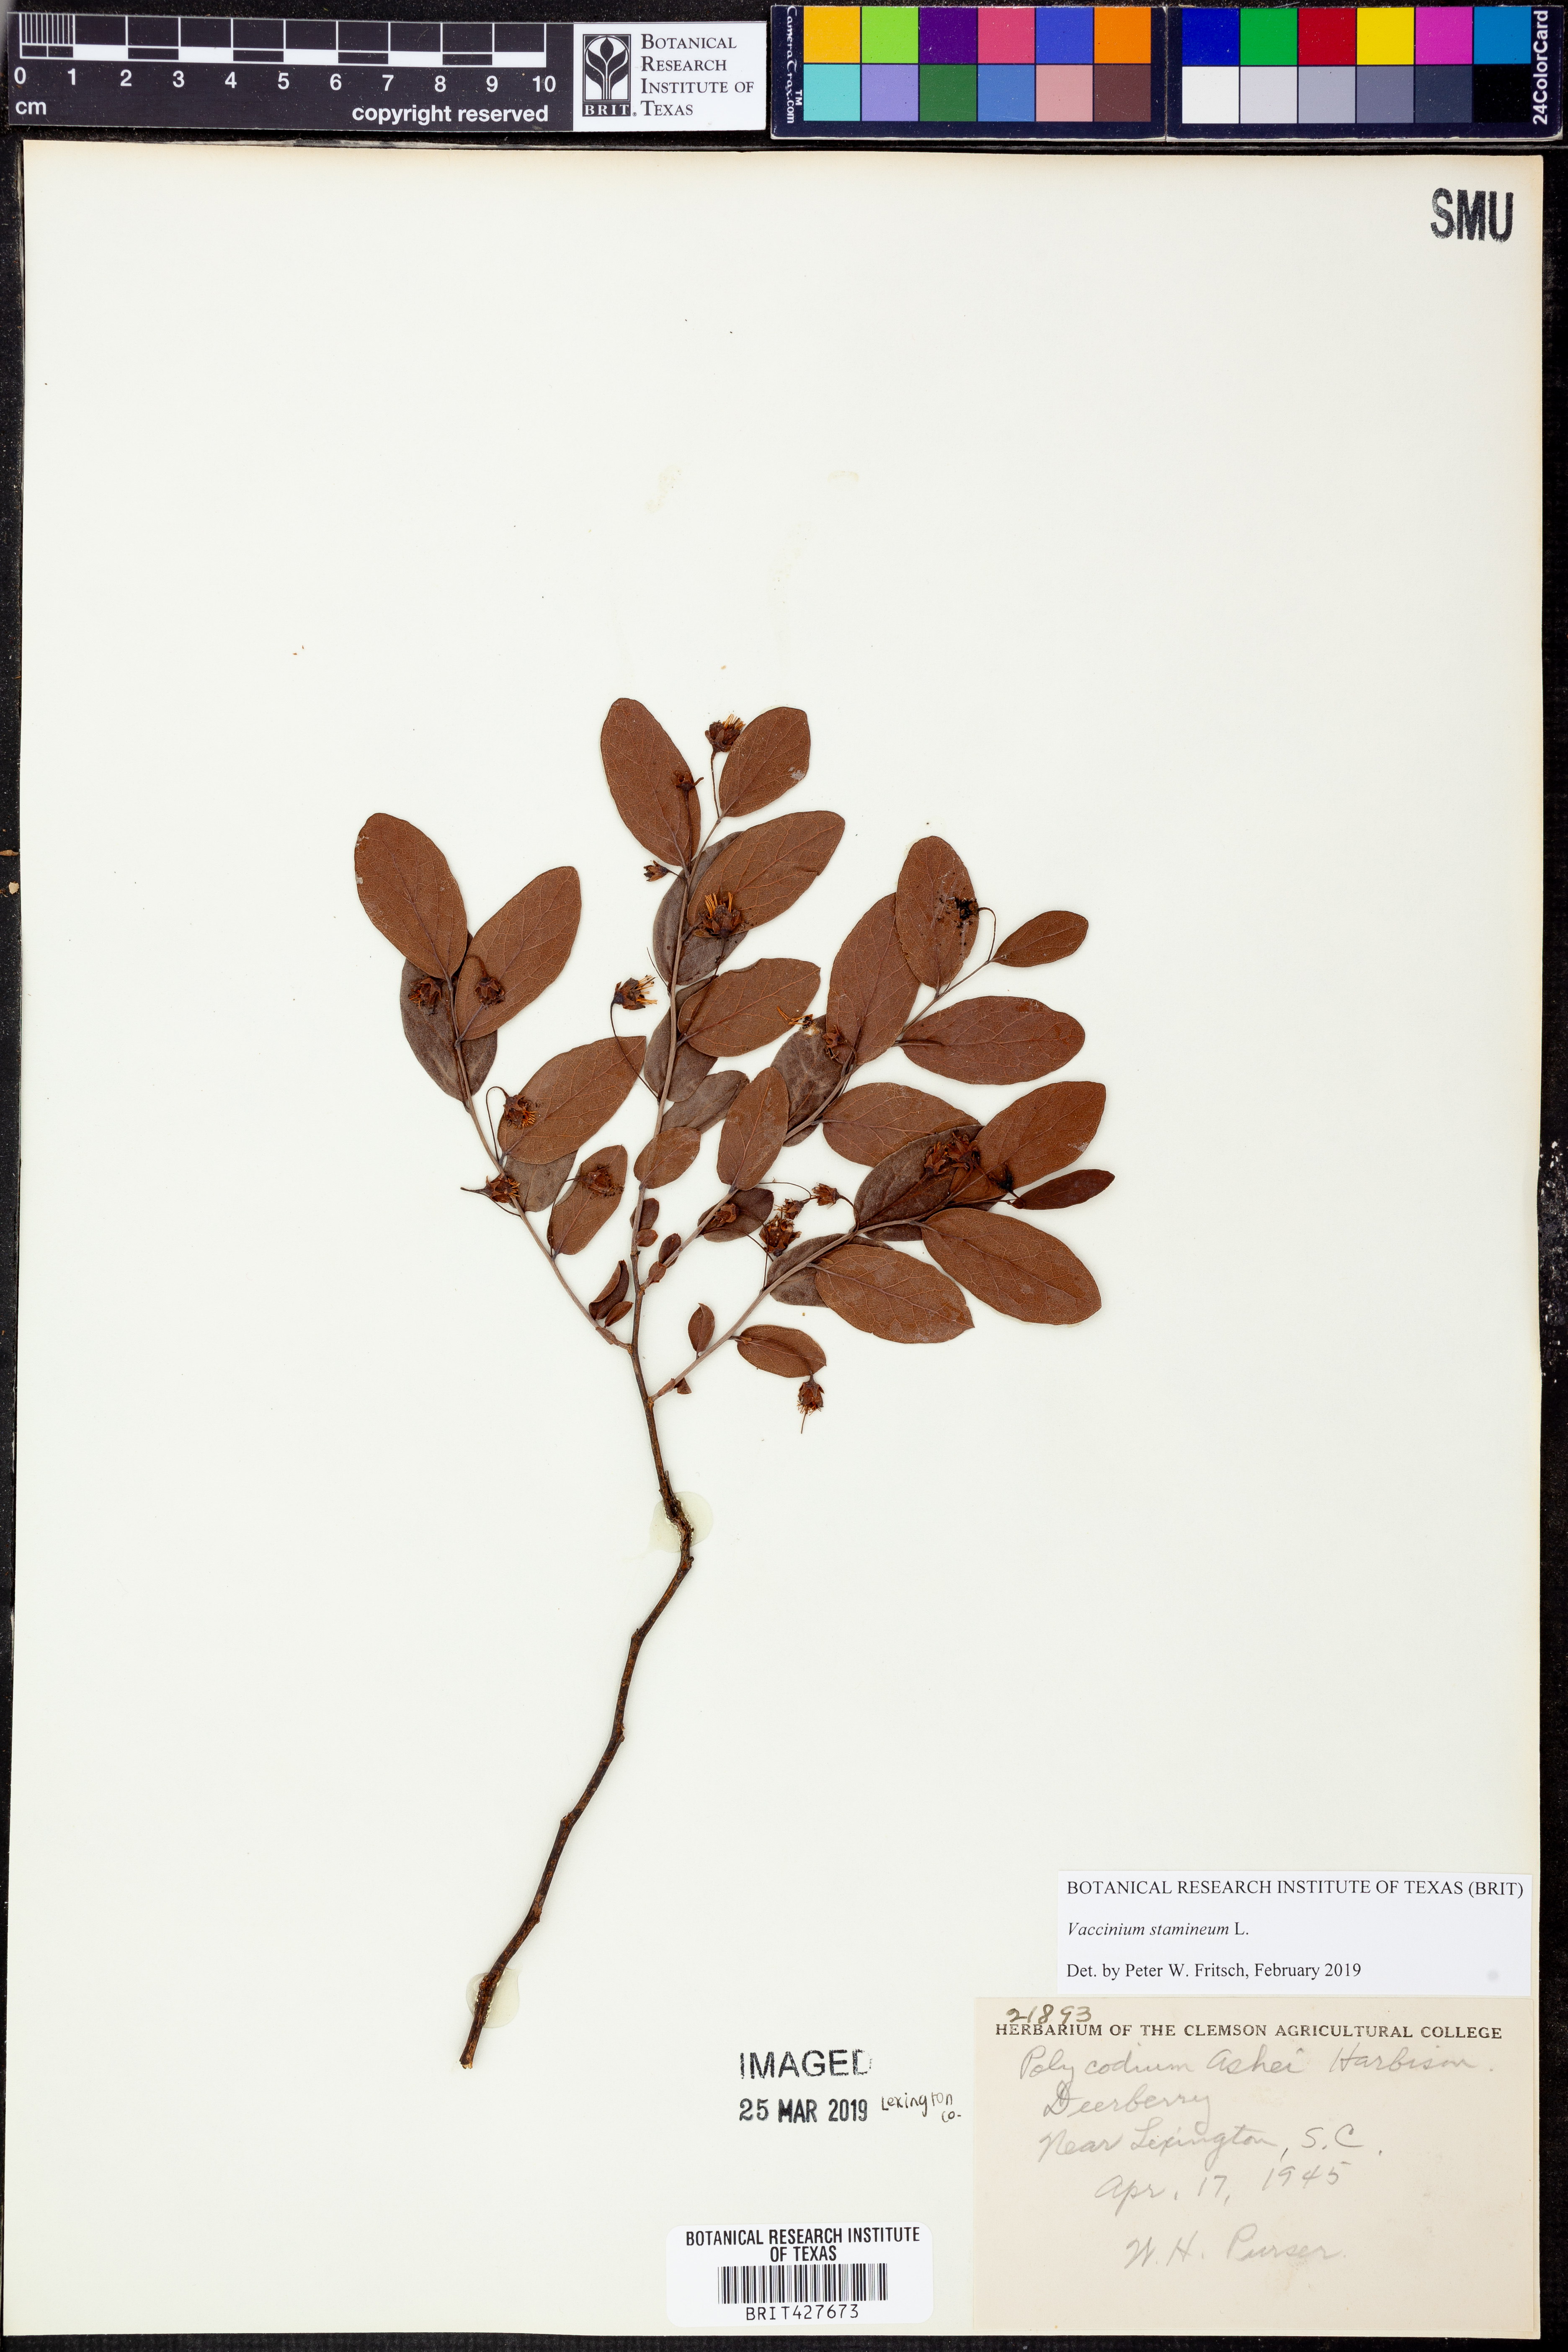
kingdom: Plantae
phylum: Tracheophyta
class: Magnoliopsida
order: Ericales
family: Ericaceae
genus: Vaccinium
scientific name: Vaccinium stamineum
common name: Deerberry
